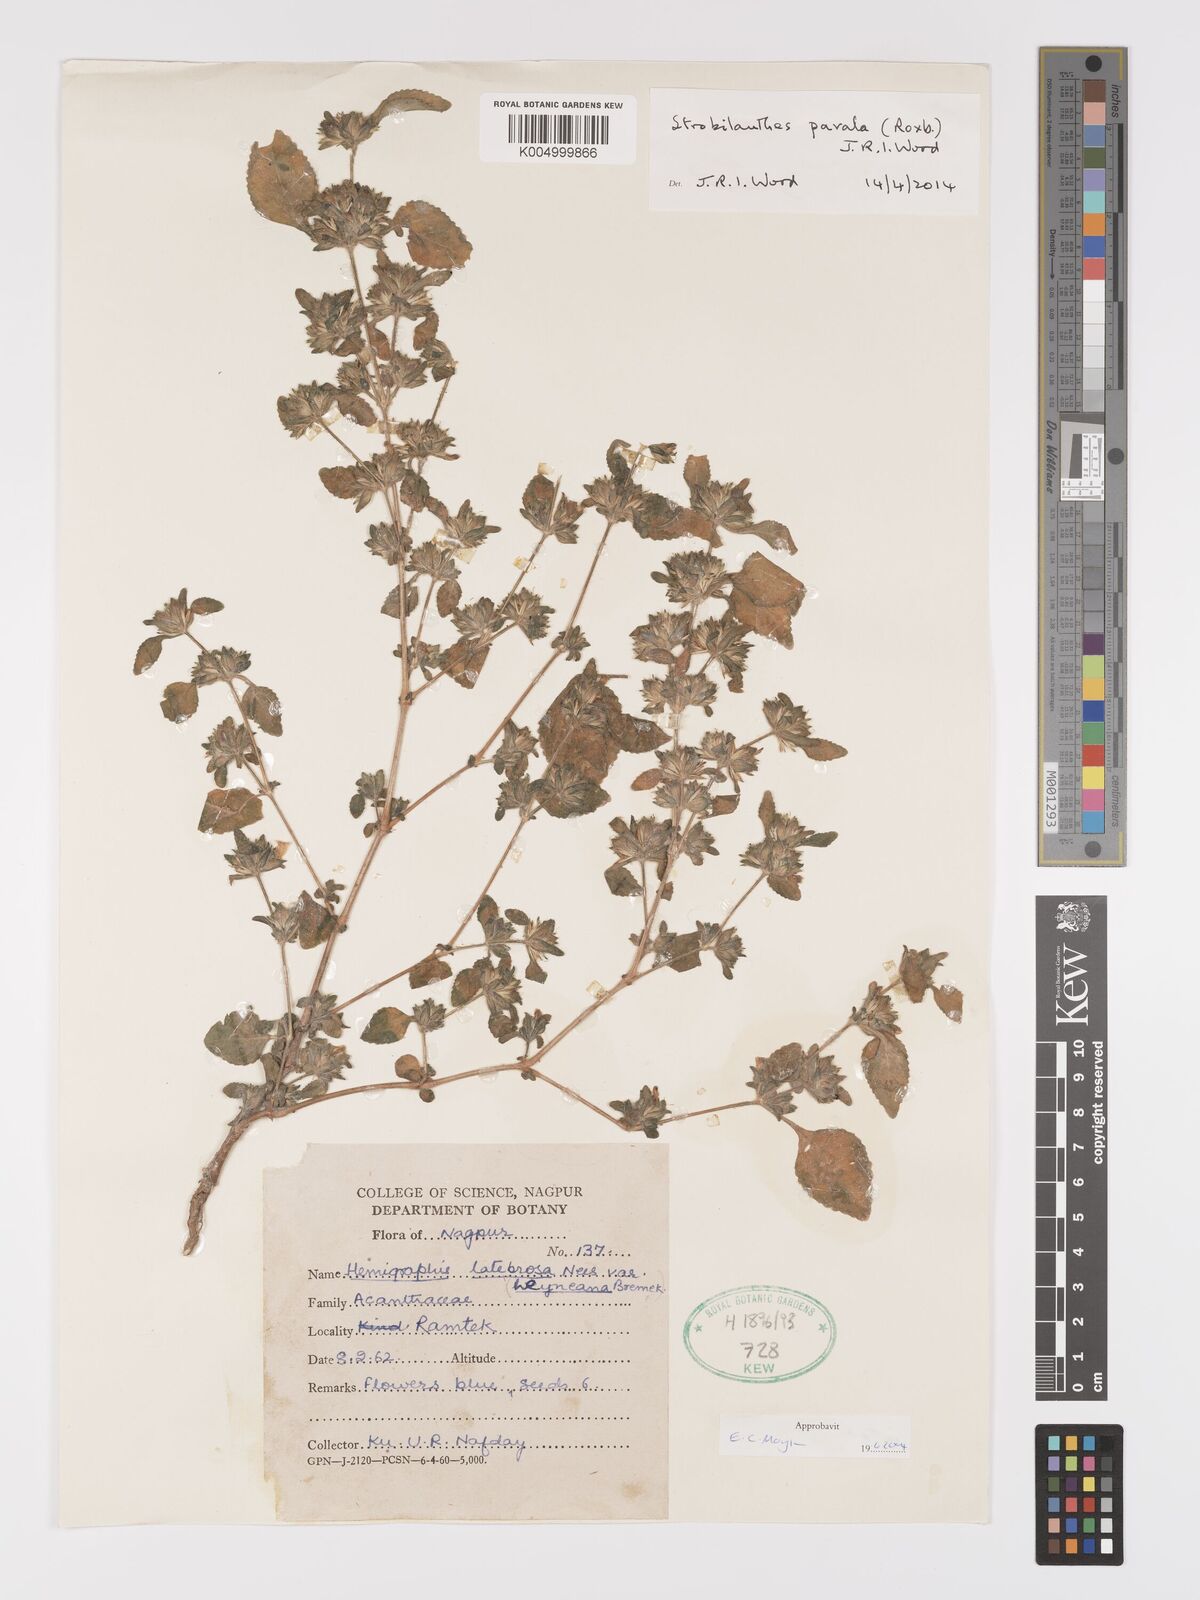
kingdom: Plantae
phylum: Tracheophyta
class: Magnoliopsida
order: Lamiales
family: Acanthaceae
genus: Strobilanthes
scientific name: Strobilanthes pavala
